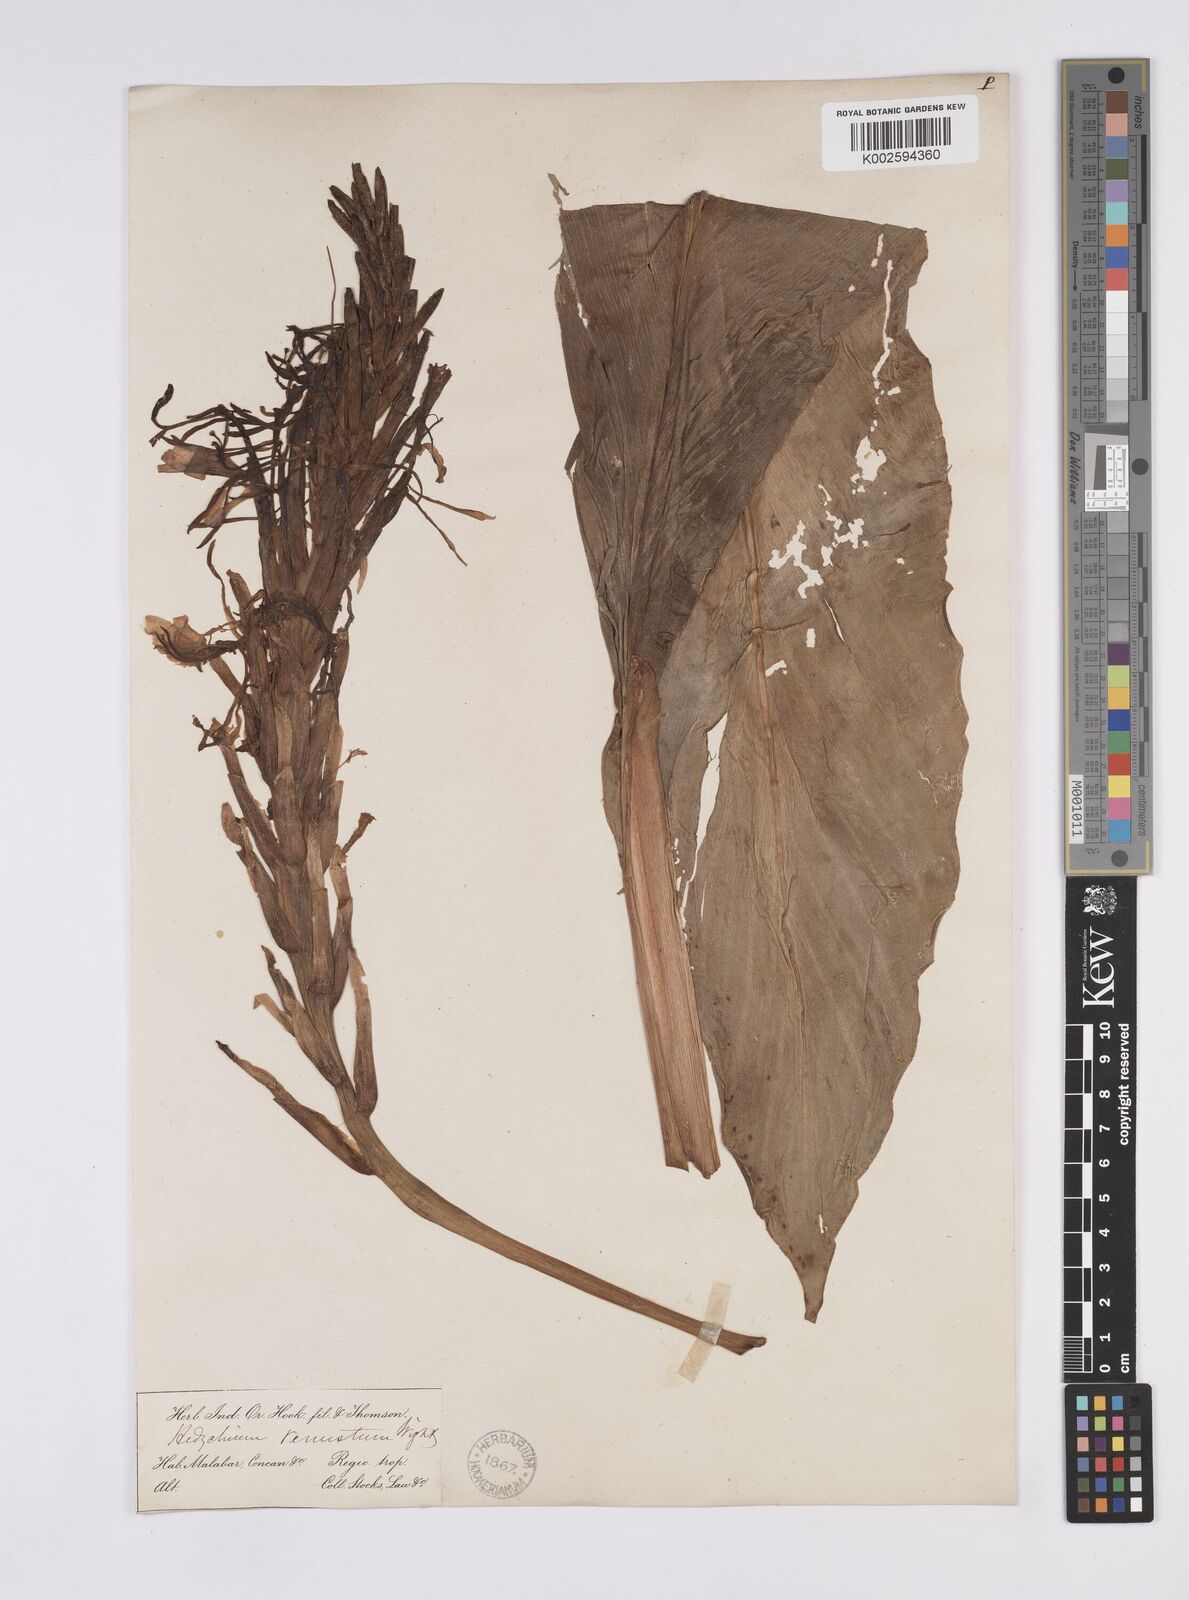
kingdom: Plantae
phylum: Tracheophyta
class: Liliopsida
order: Zingiberales
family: Zingiberaceae
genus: Hedychium
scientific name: Hedychium venustum
